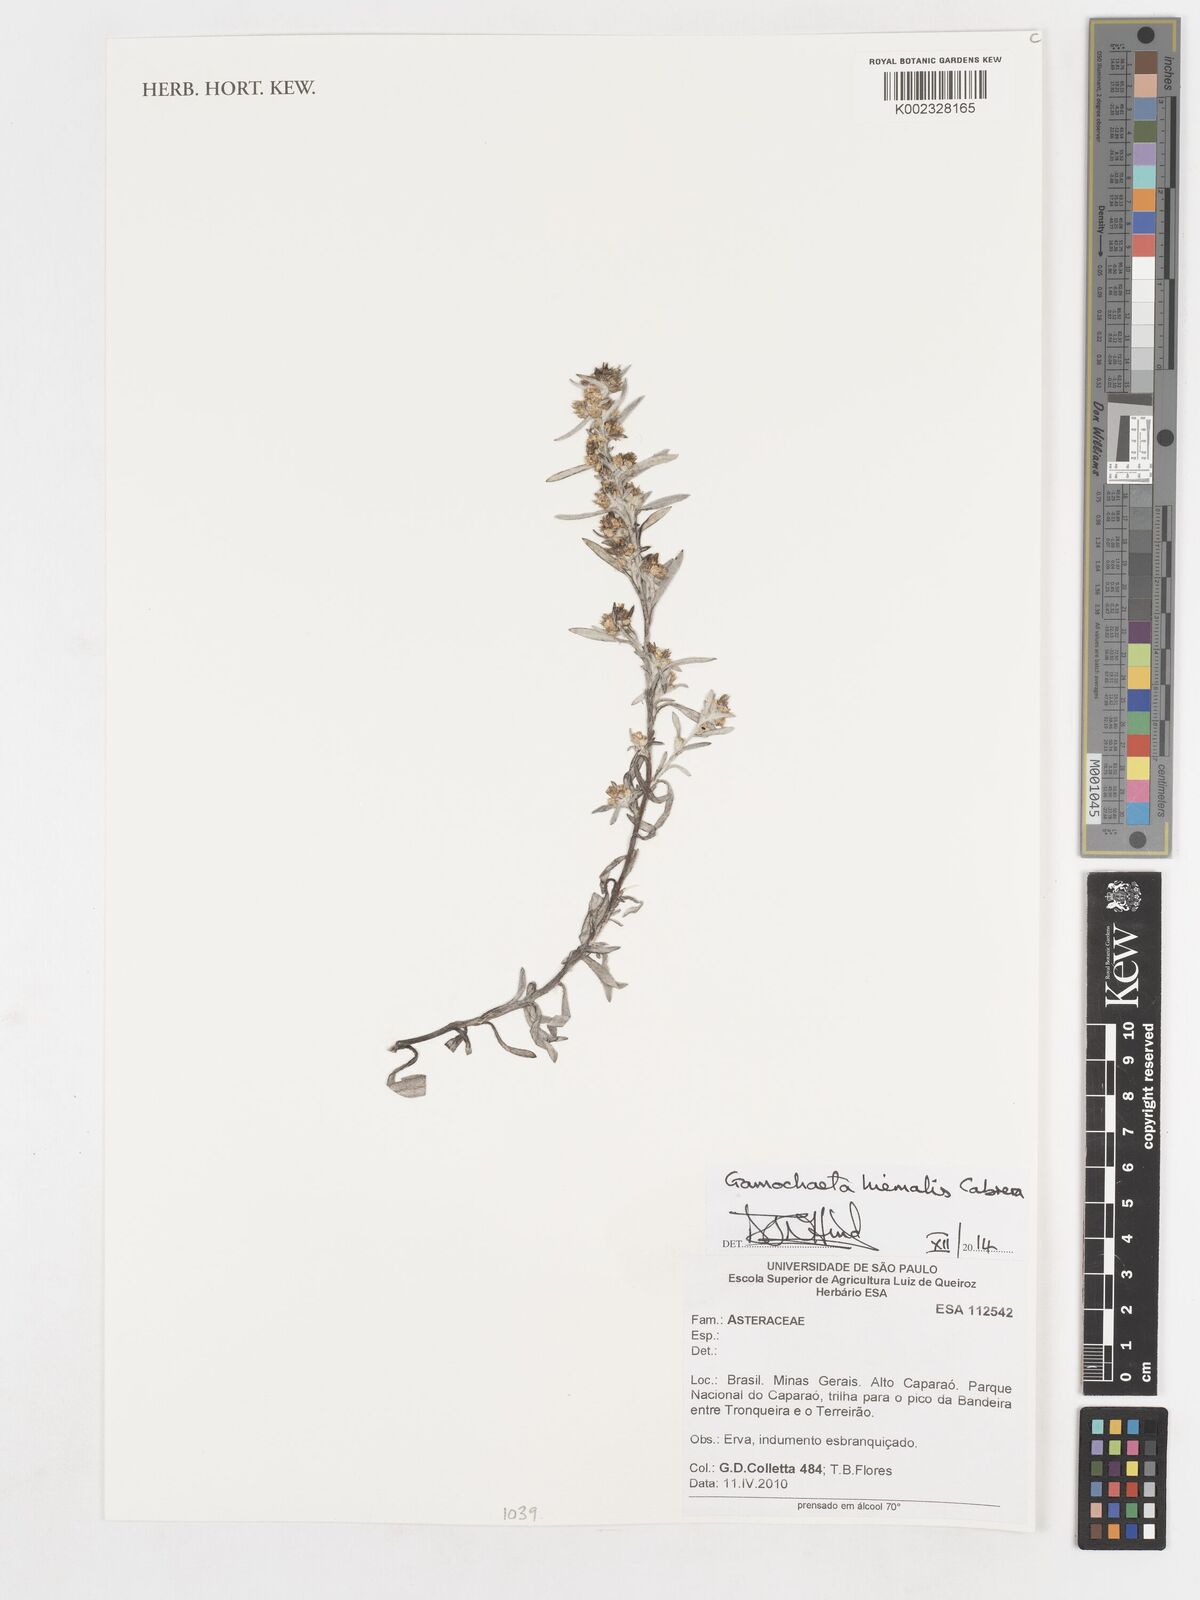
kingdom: Plantae
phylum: Tracheophyta
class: Magnoliopsida
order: Asterales
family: Asteraceae
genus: Gamochaeta
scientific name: Gamochaeta brasiliana
